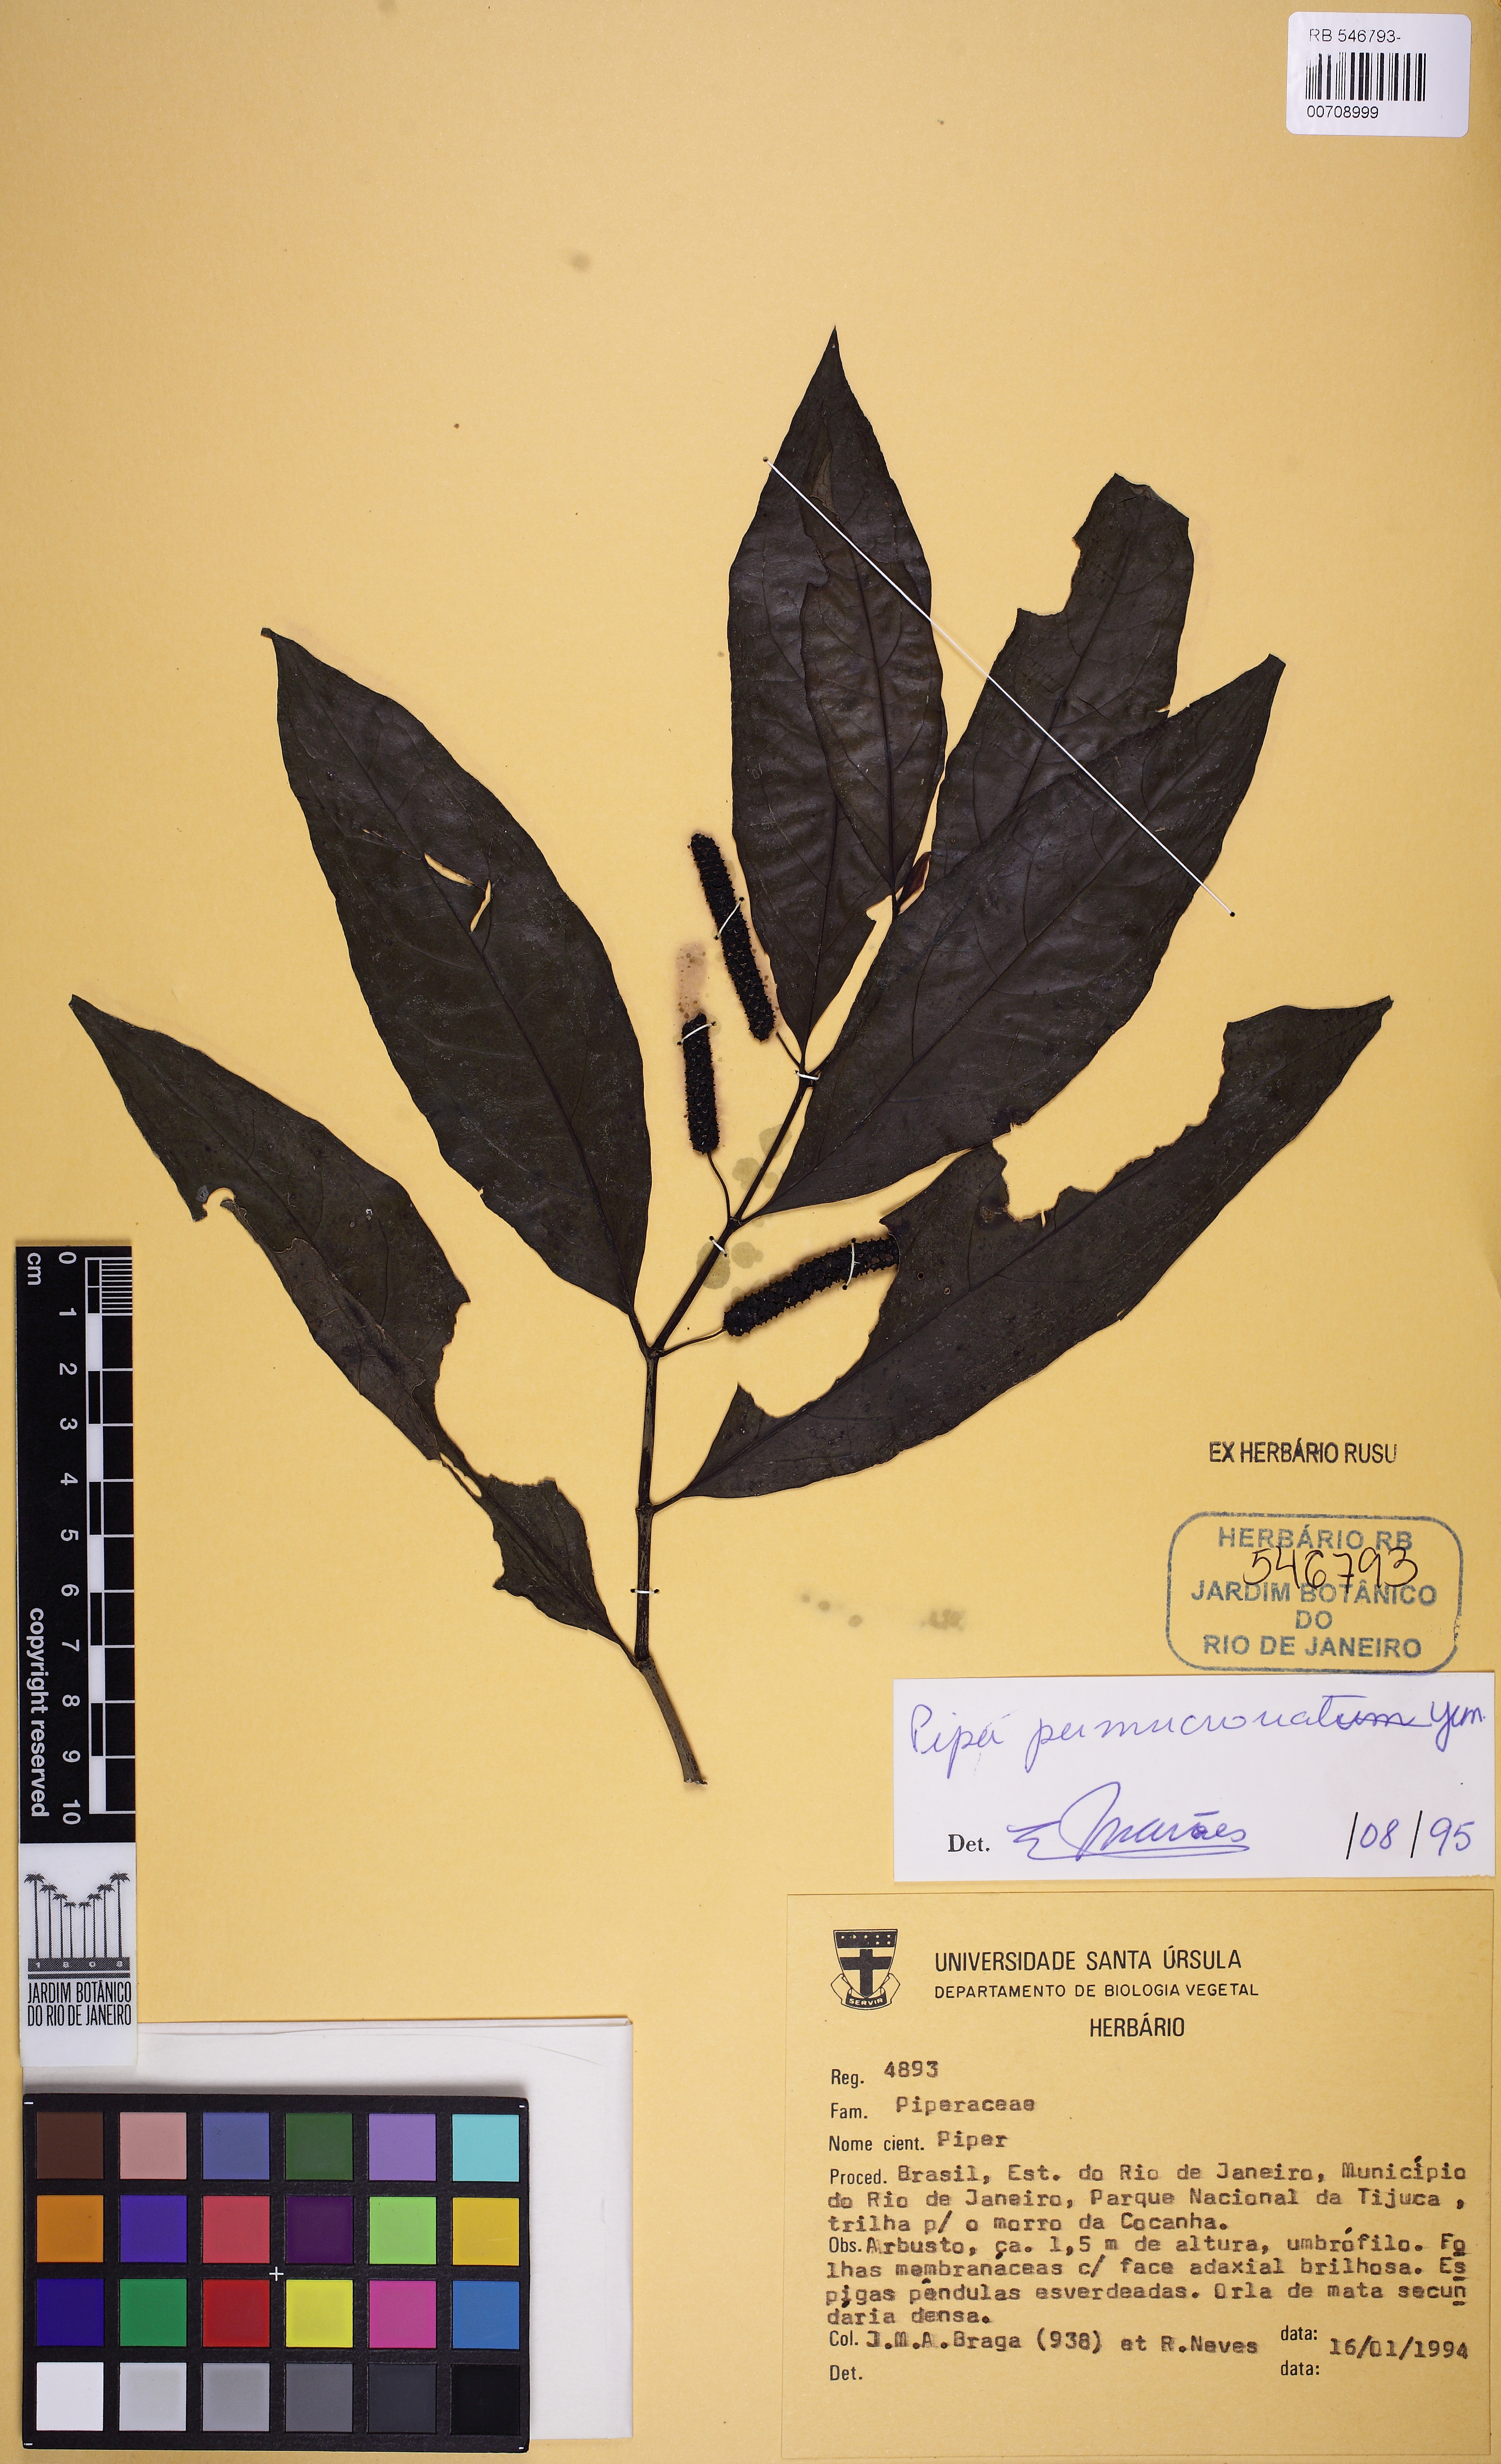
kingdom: Plantae
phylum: Tracheophyta
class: Magnoliopsida
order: Piperales
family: Piperaceae
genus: Piper
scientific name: Piper permucronatum
